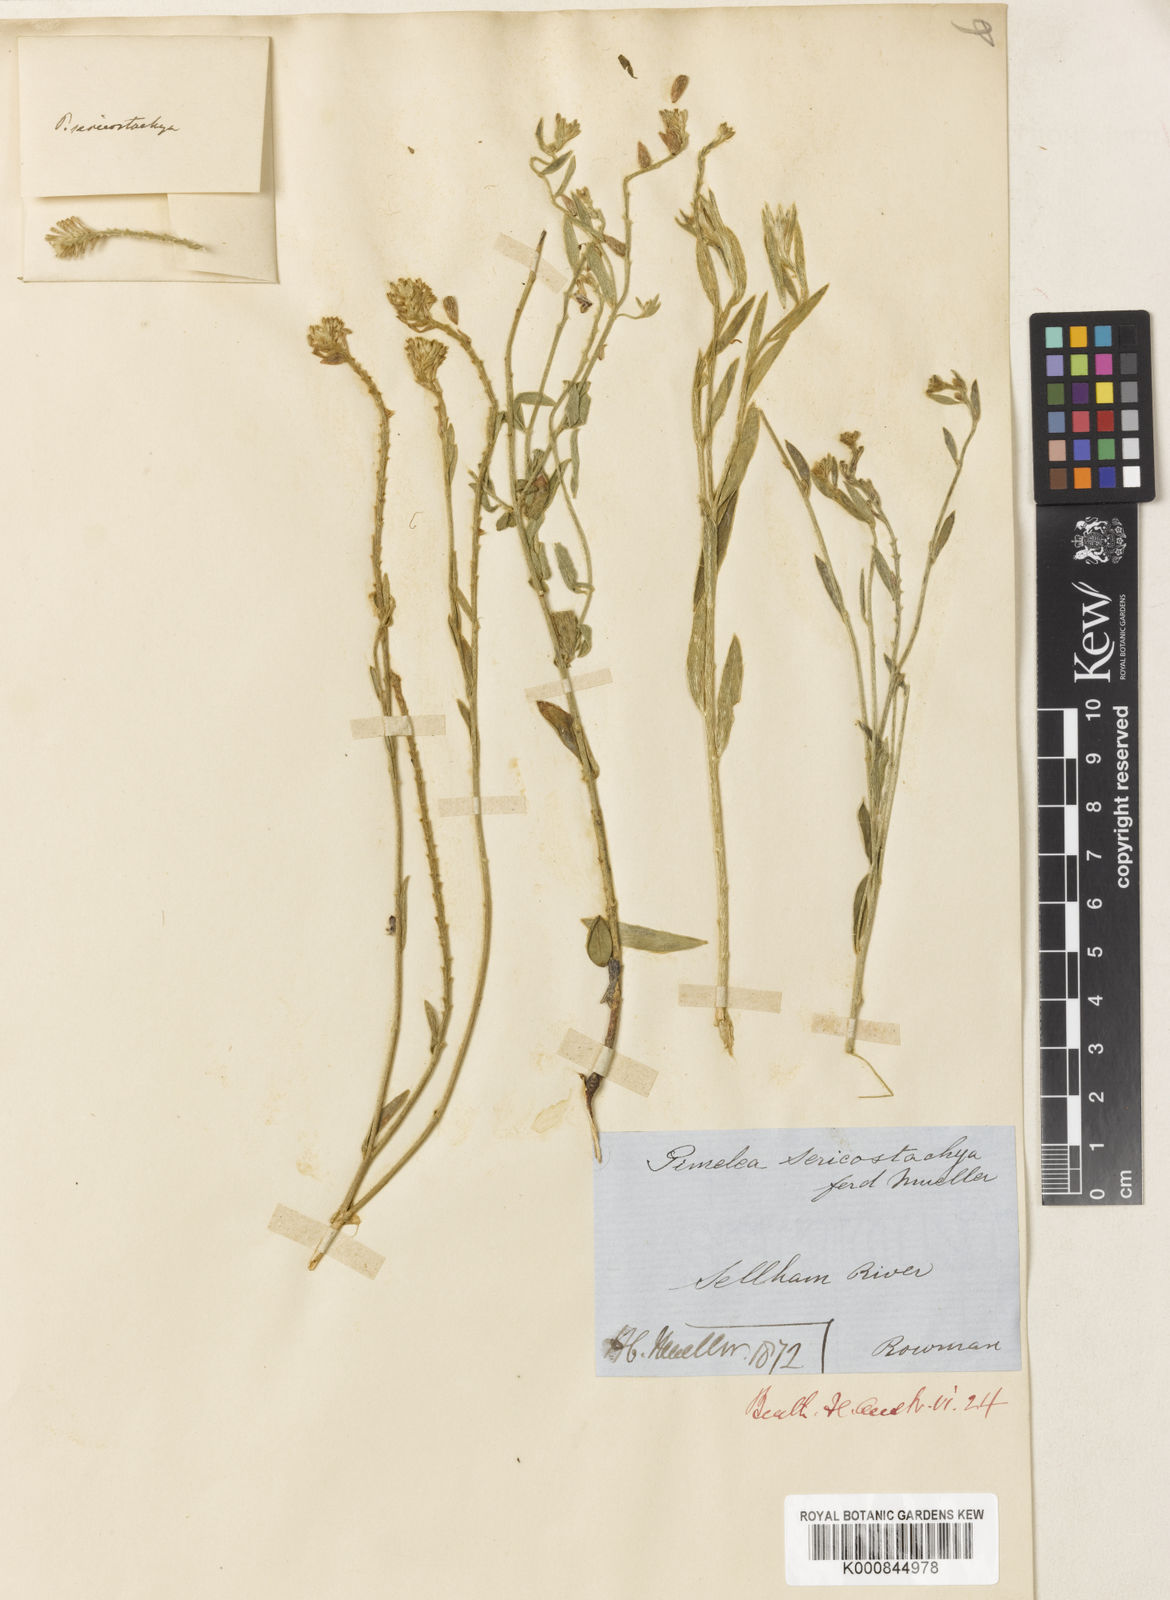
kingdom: Plantae
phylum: Tracheophyta
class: Magnoliopsida
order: Malvales
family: Thymelaeaceae
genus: Pimelea
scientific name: Pimelea sericostachya
